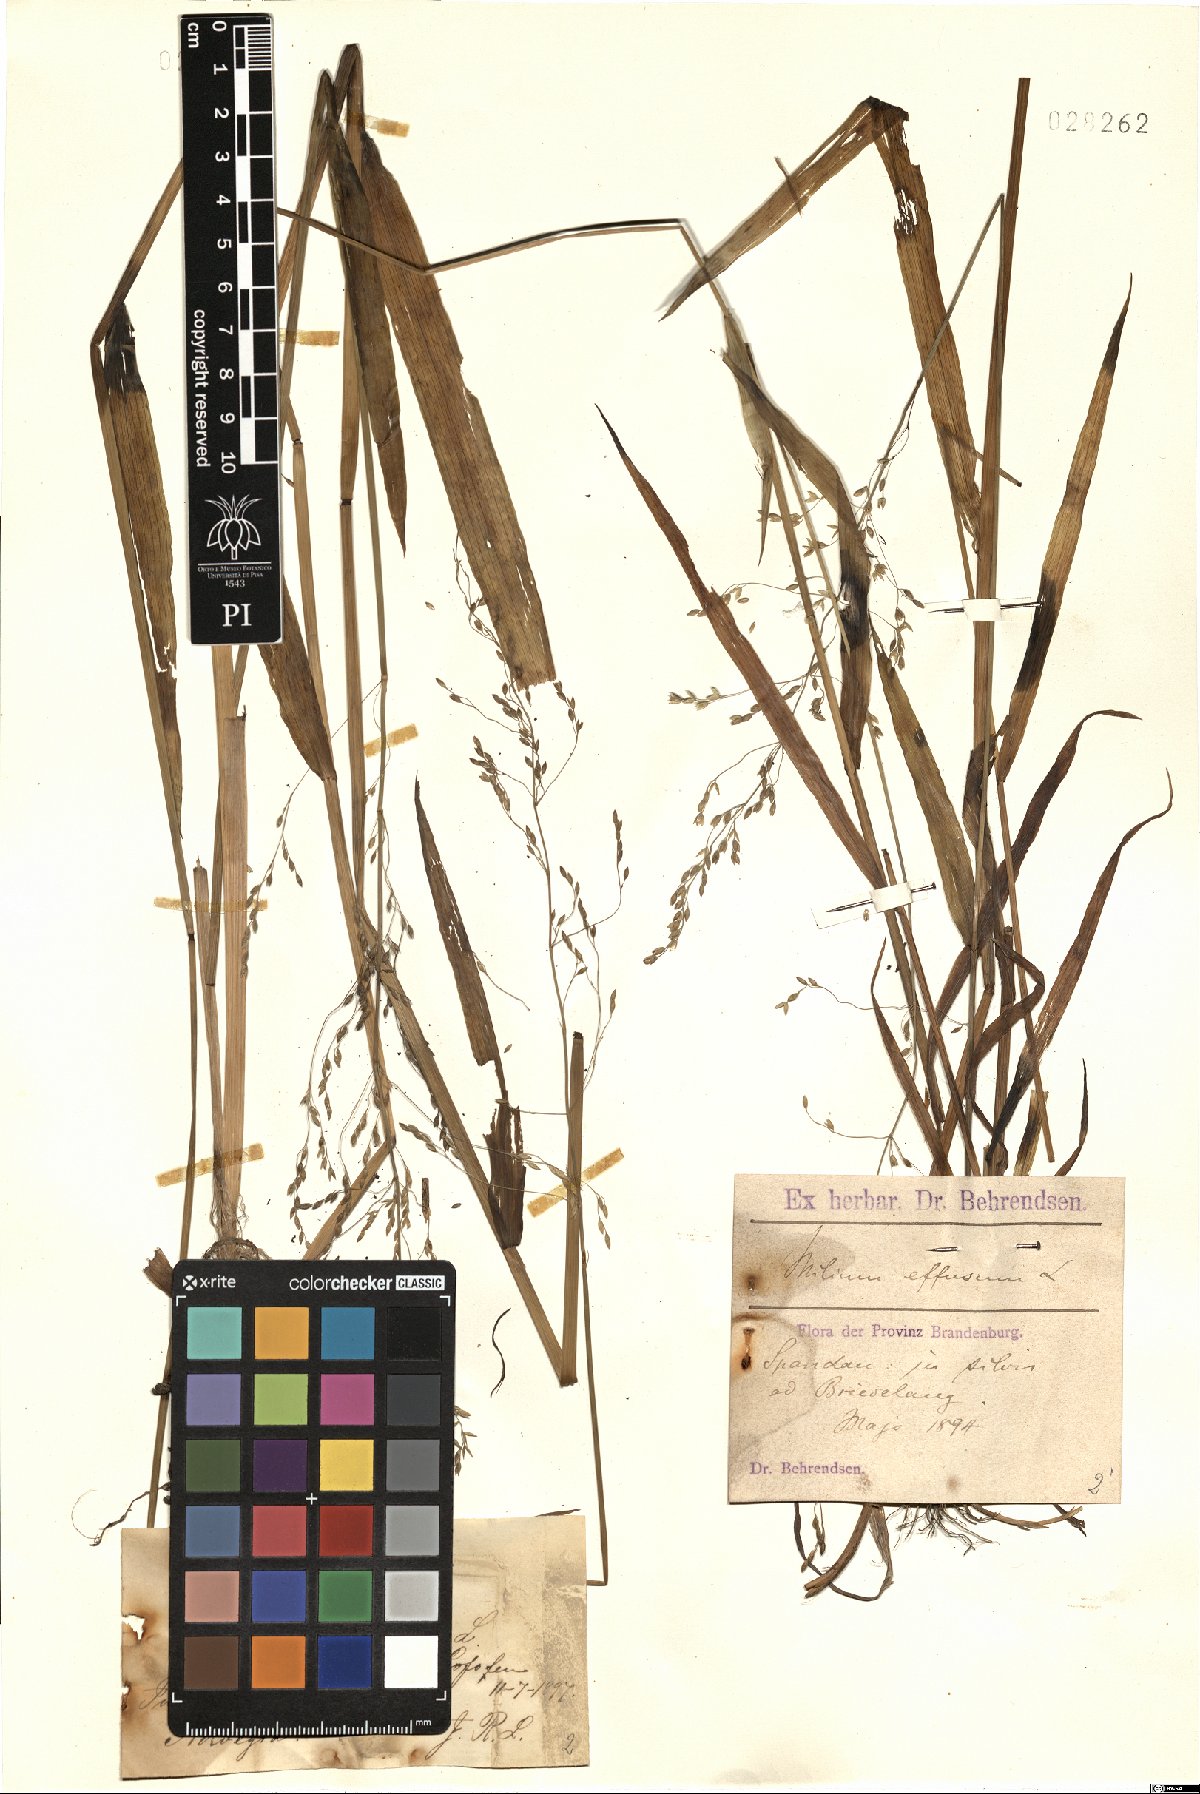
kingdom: Plantae
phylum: Tracheophyta
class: Liliopsida
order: Poales
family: Poaceae
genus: Milium
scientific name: Milium effusum
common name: Wood millet
